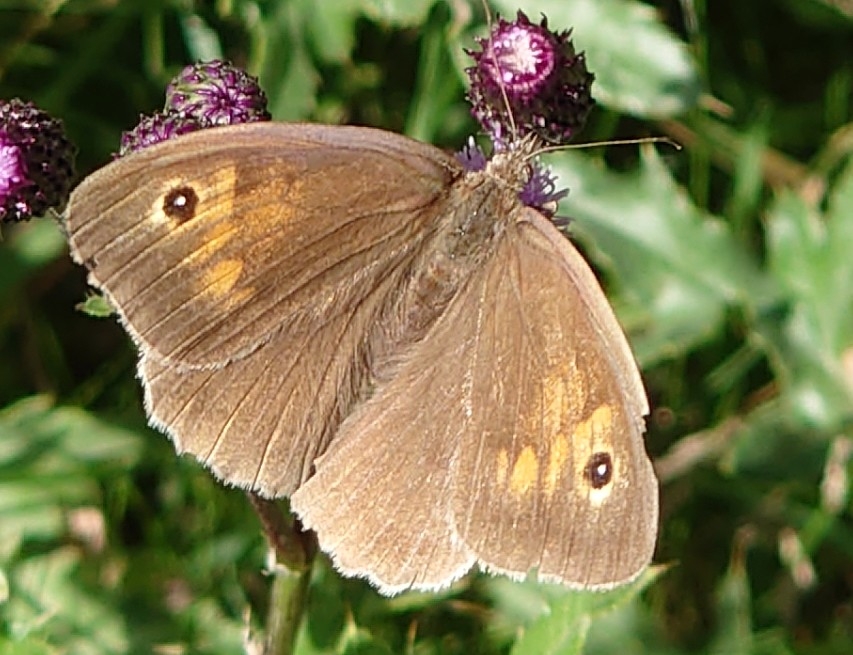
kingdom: Animalia
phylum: Arthropoda
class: Insecta
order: Lepidoptera
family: Nymphalidae
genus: Maniola
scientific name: Maniola jurtina
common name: Græsrandøje
